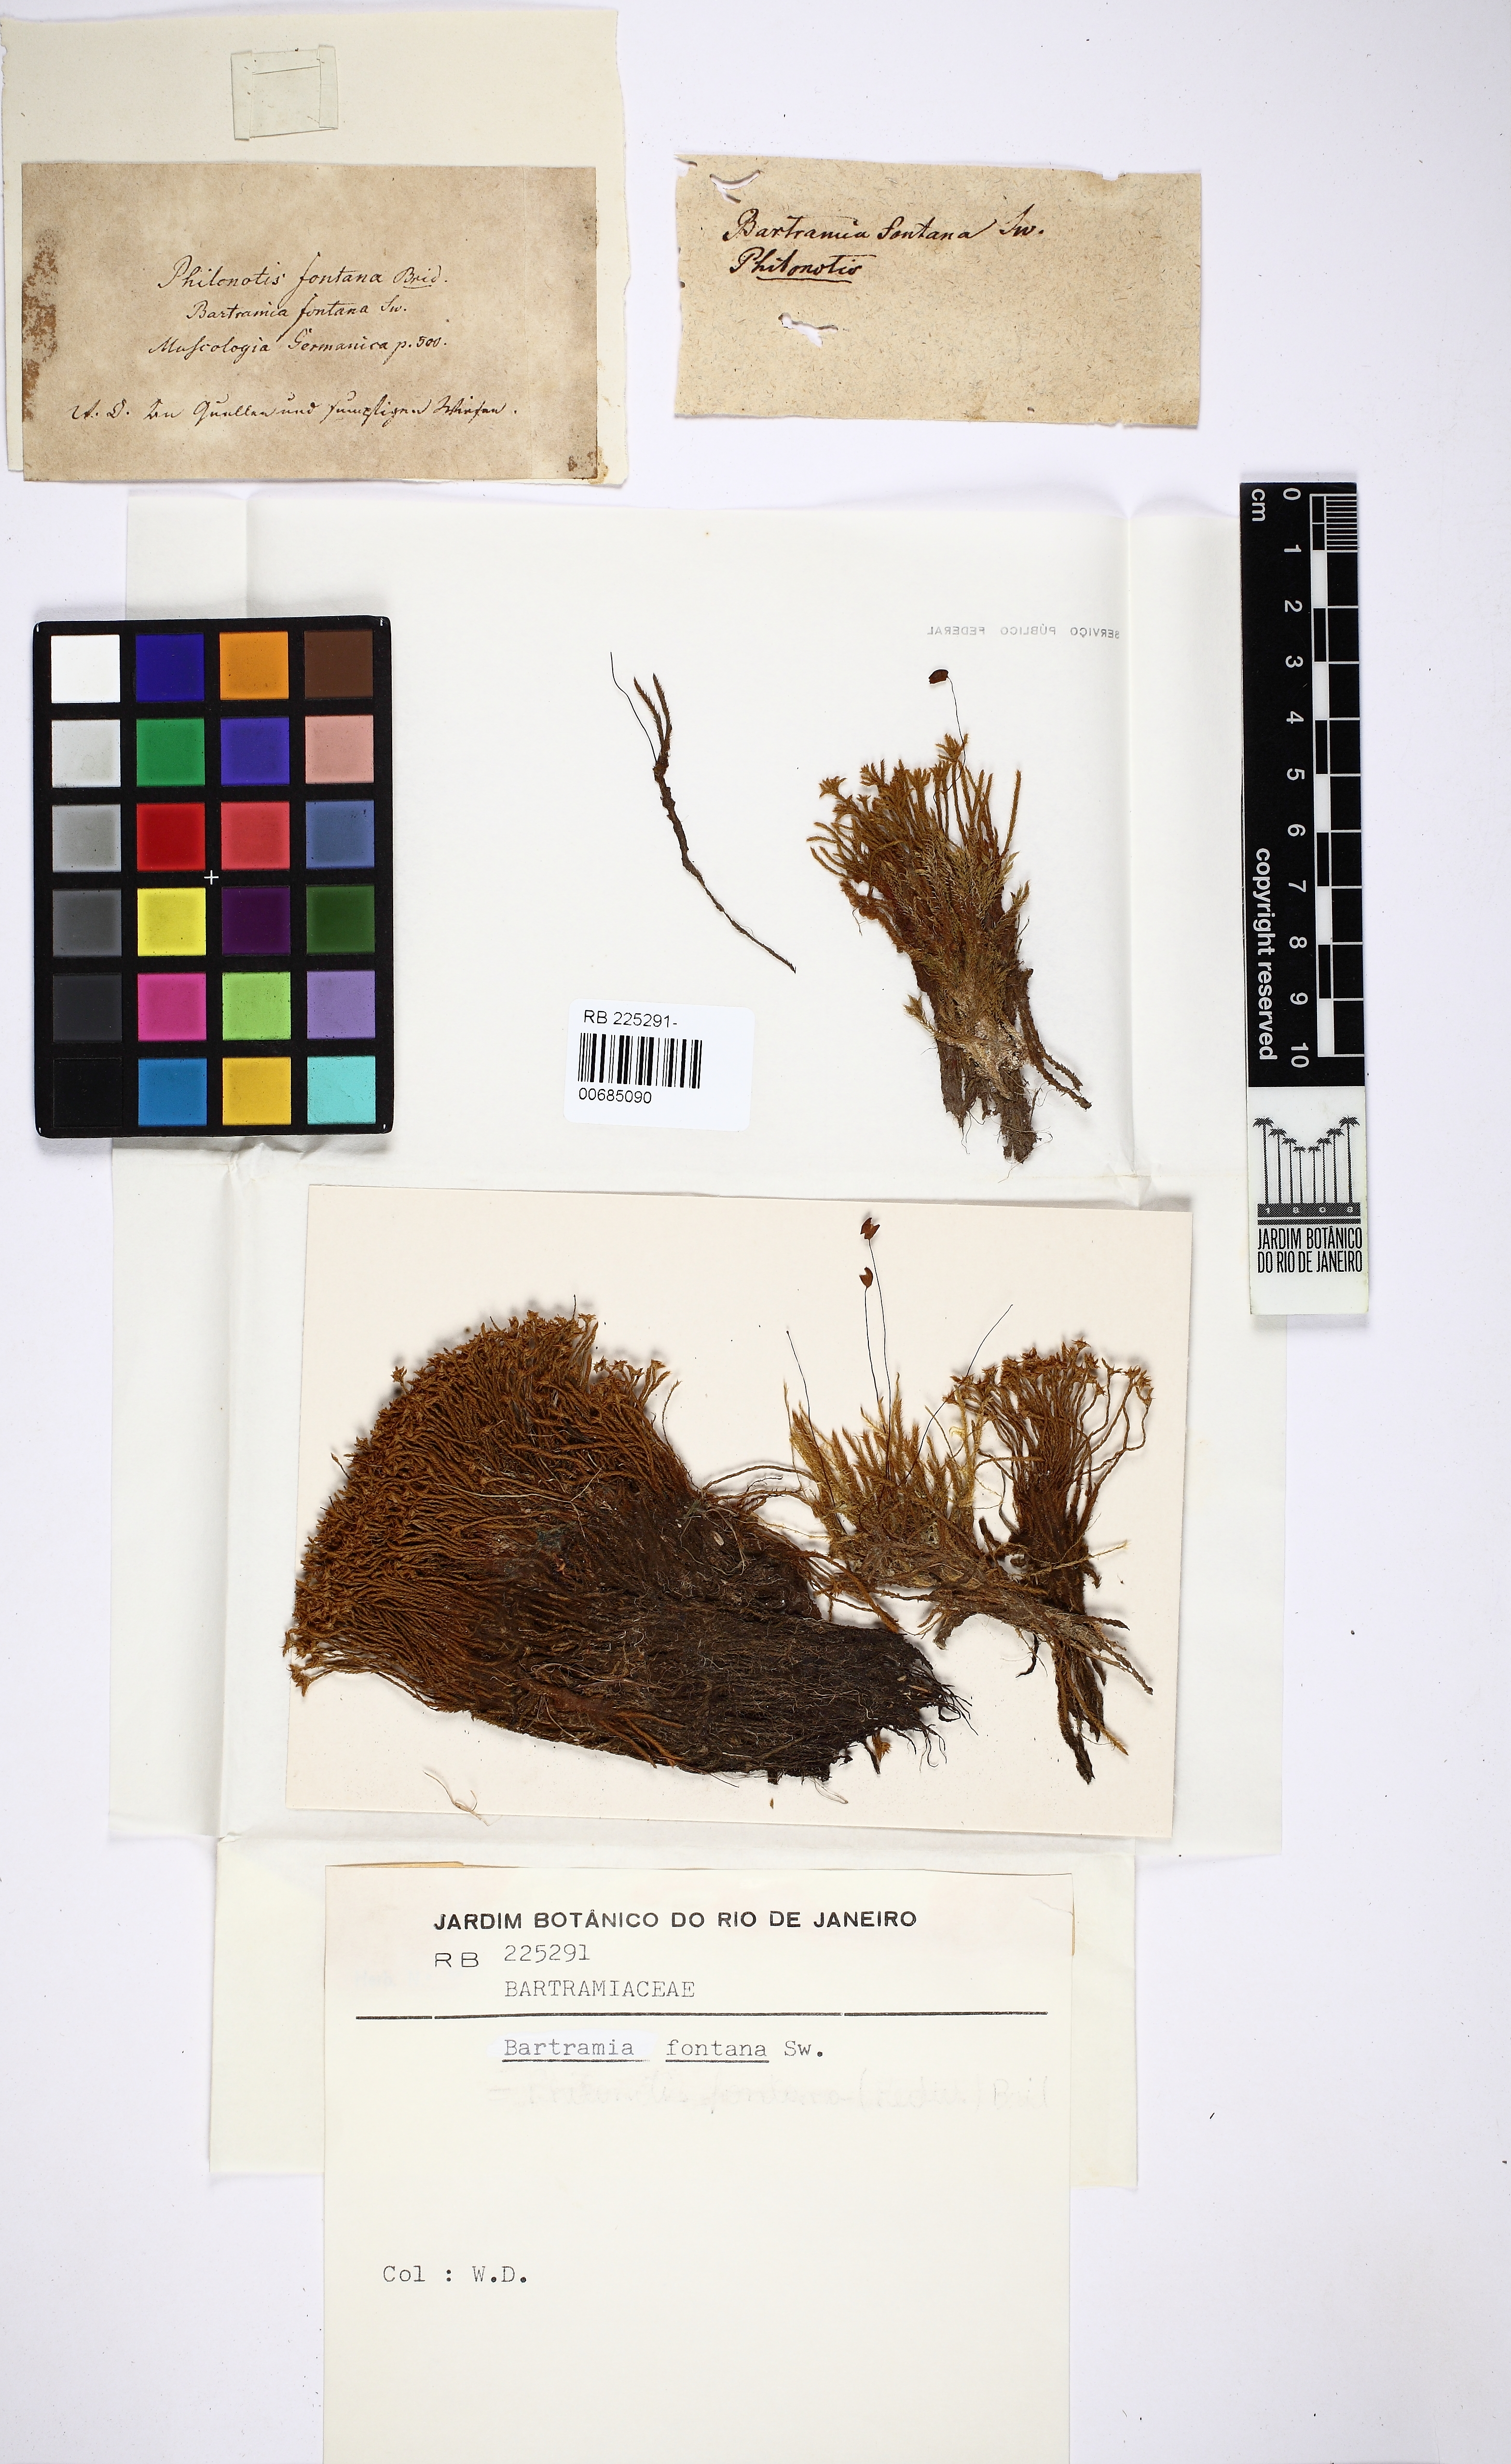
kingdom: Plantae
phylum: Bryophyta
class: Bryopsida
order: Bartramiales
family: Bartramiaceae
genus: Philonotis
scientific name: Philonotis fontana
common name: Fountain apple-moss
